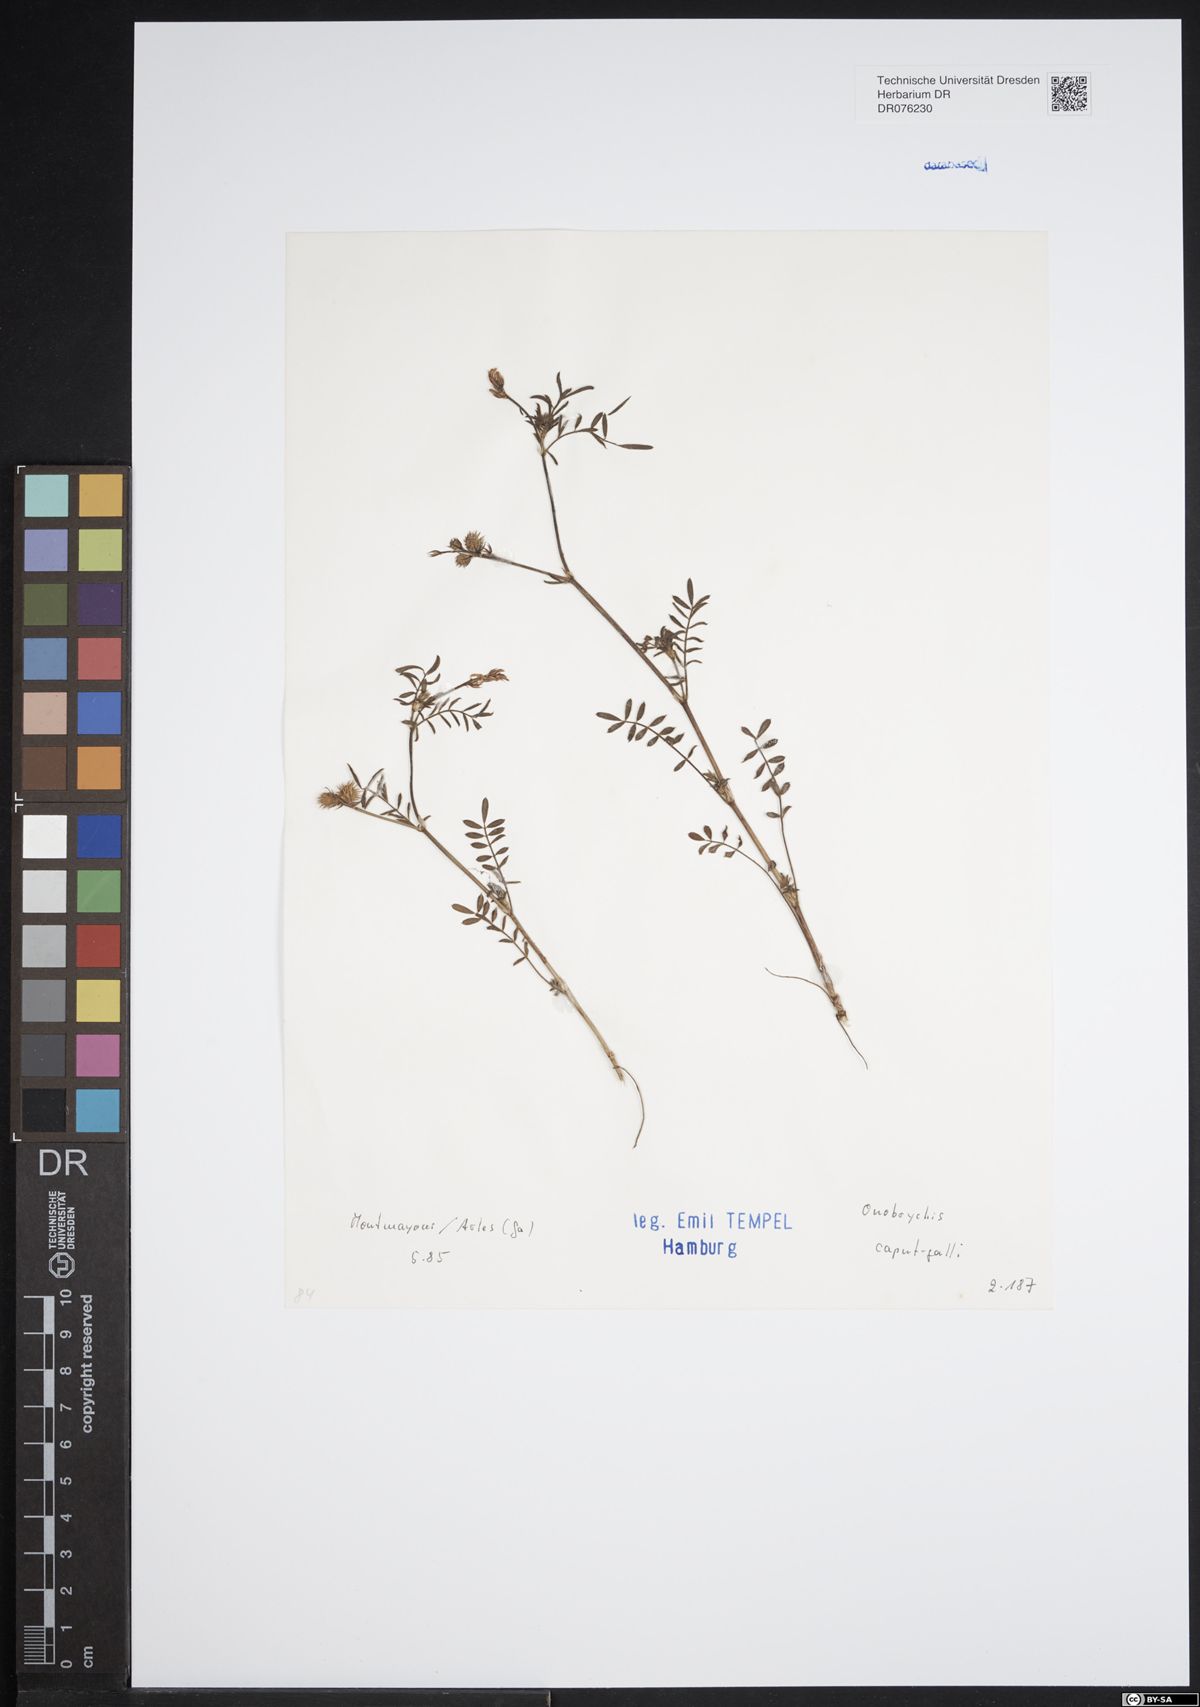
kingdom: Plantae
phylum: Tracheophyta
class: Magnoliopsida
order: Fabales
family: Fabaceae
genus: Onobrychis
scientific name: Onobrychis caput-galli
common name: Cockscomb sainfoin
